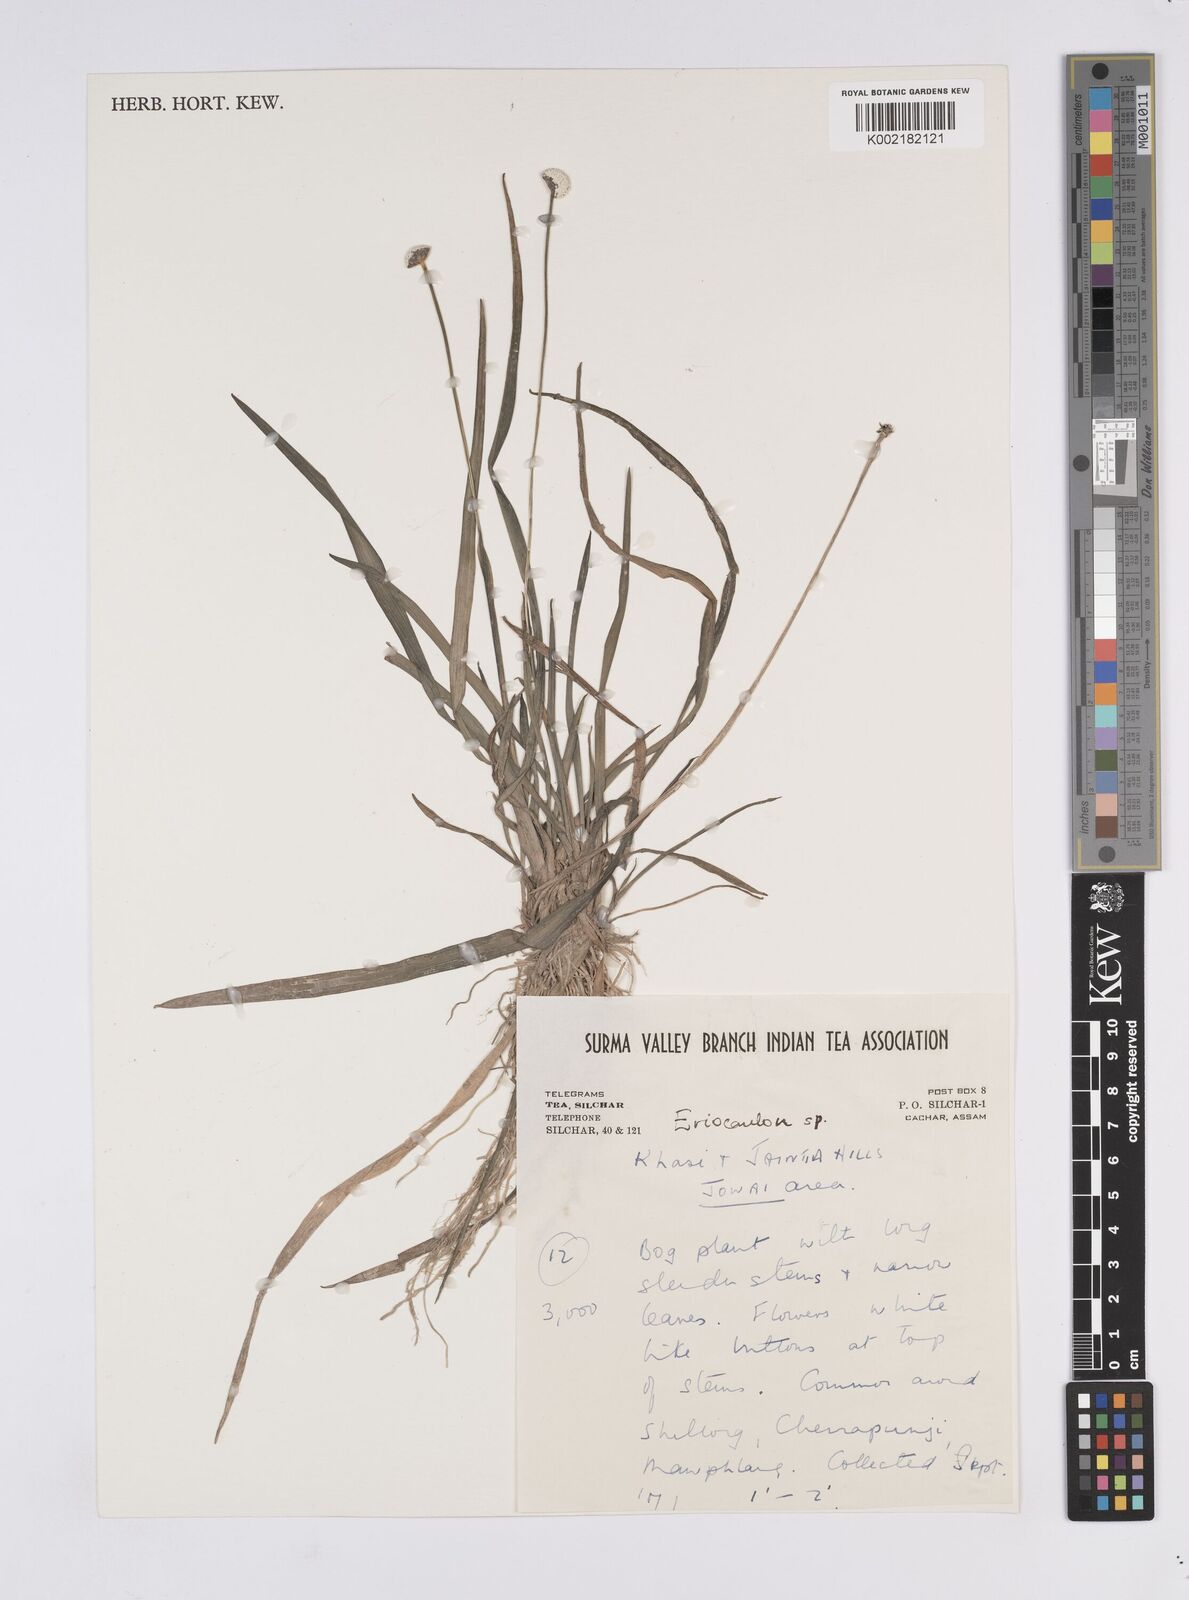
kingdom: Plantae
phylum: Tracheophyta
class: Liliopsida
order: Poales
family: Eriocaulaceae
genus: Eriocaulon
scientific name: Eriocaulon
